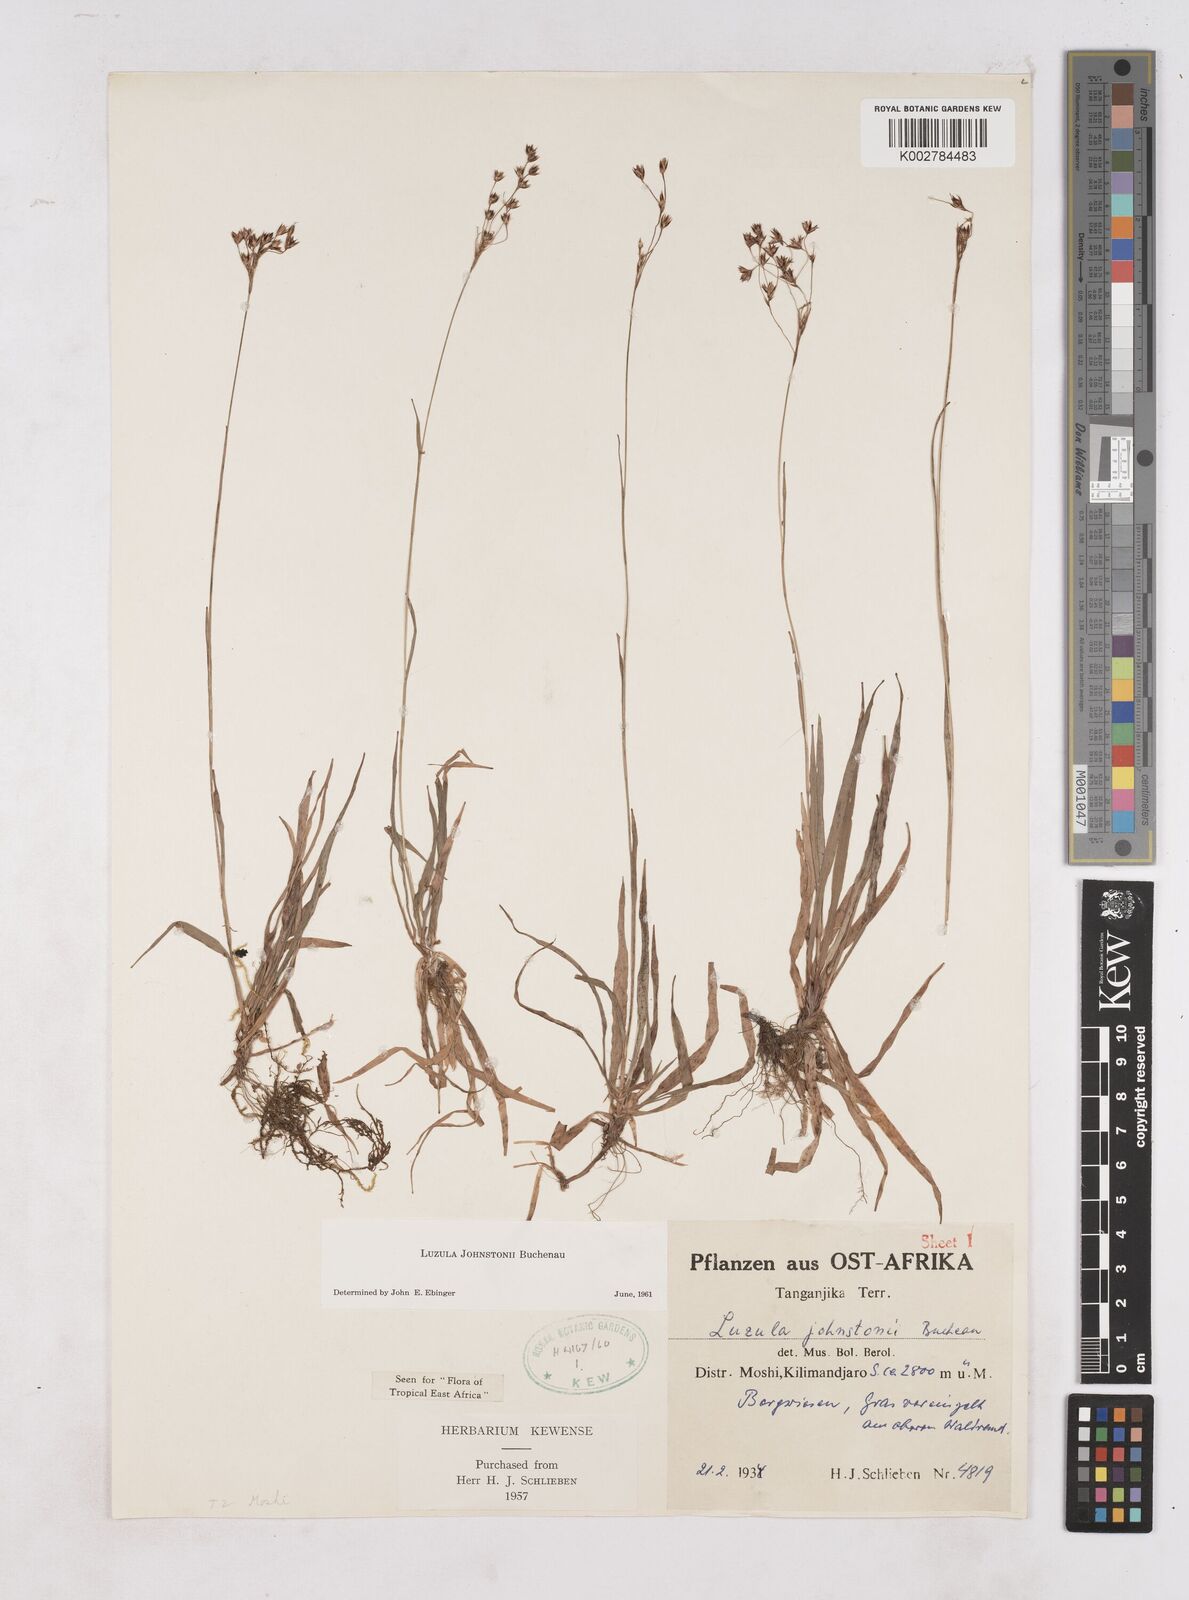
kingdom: Plantae
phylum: Tracheophyta
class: Liliopsida
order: Poales
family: Juncaceae
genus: Luzula
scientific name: Luzula johnstonii
